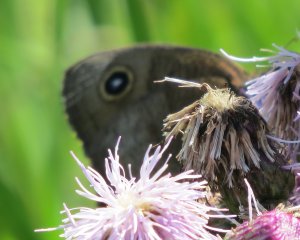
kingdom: Animalia
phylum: Arthropoda
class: Insecta
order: Lepidoptera
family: Nymphalidae
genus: Cercyonis
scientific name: Cercyonis pegala
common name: Common Wood-Nymph
